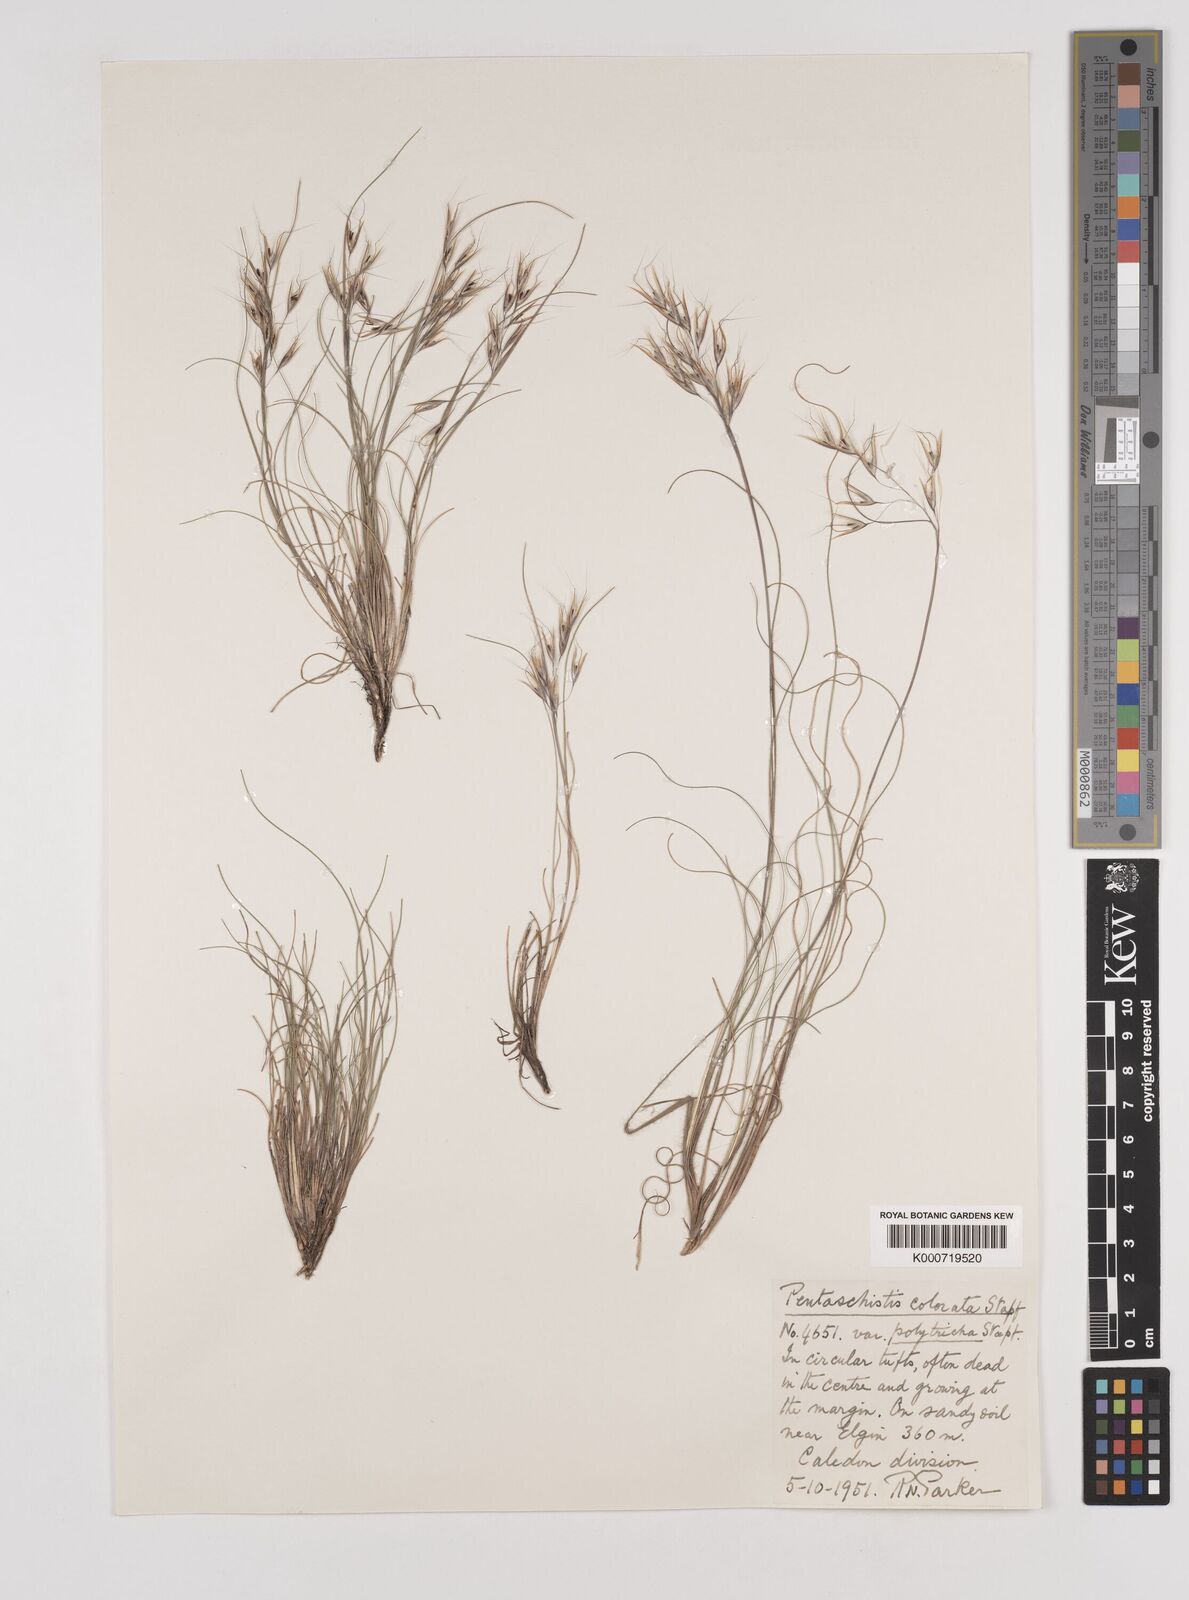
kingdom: Plantae
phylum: Tracheophyta
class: Liliopsida
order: Poales
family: Poaceae
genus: Pentameris
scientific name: Pentameris colorata
